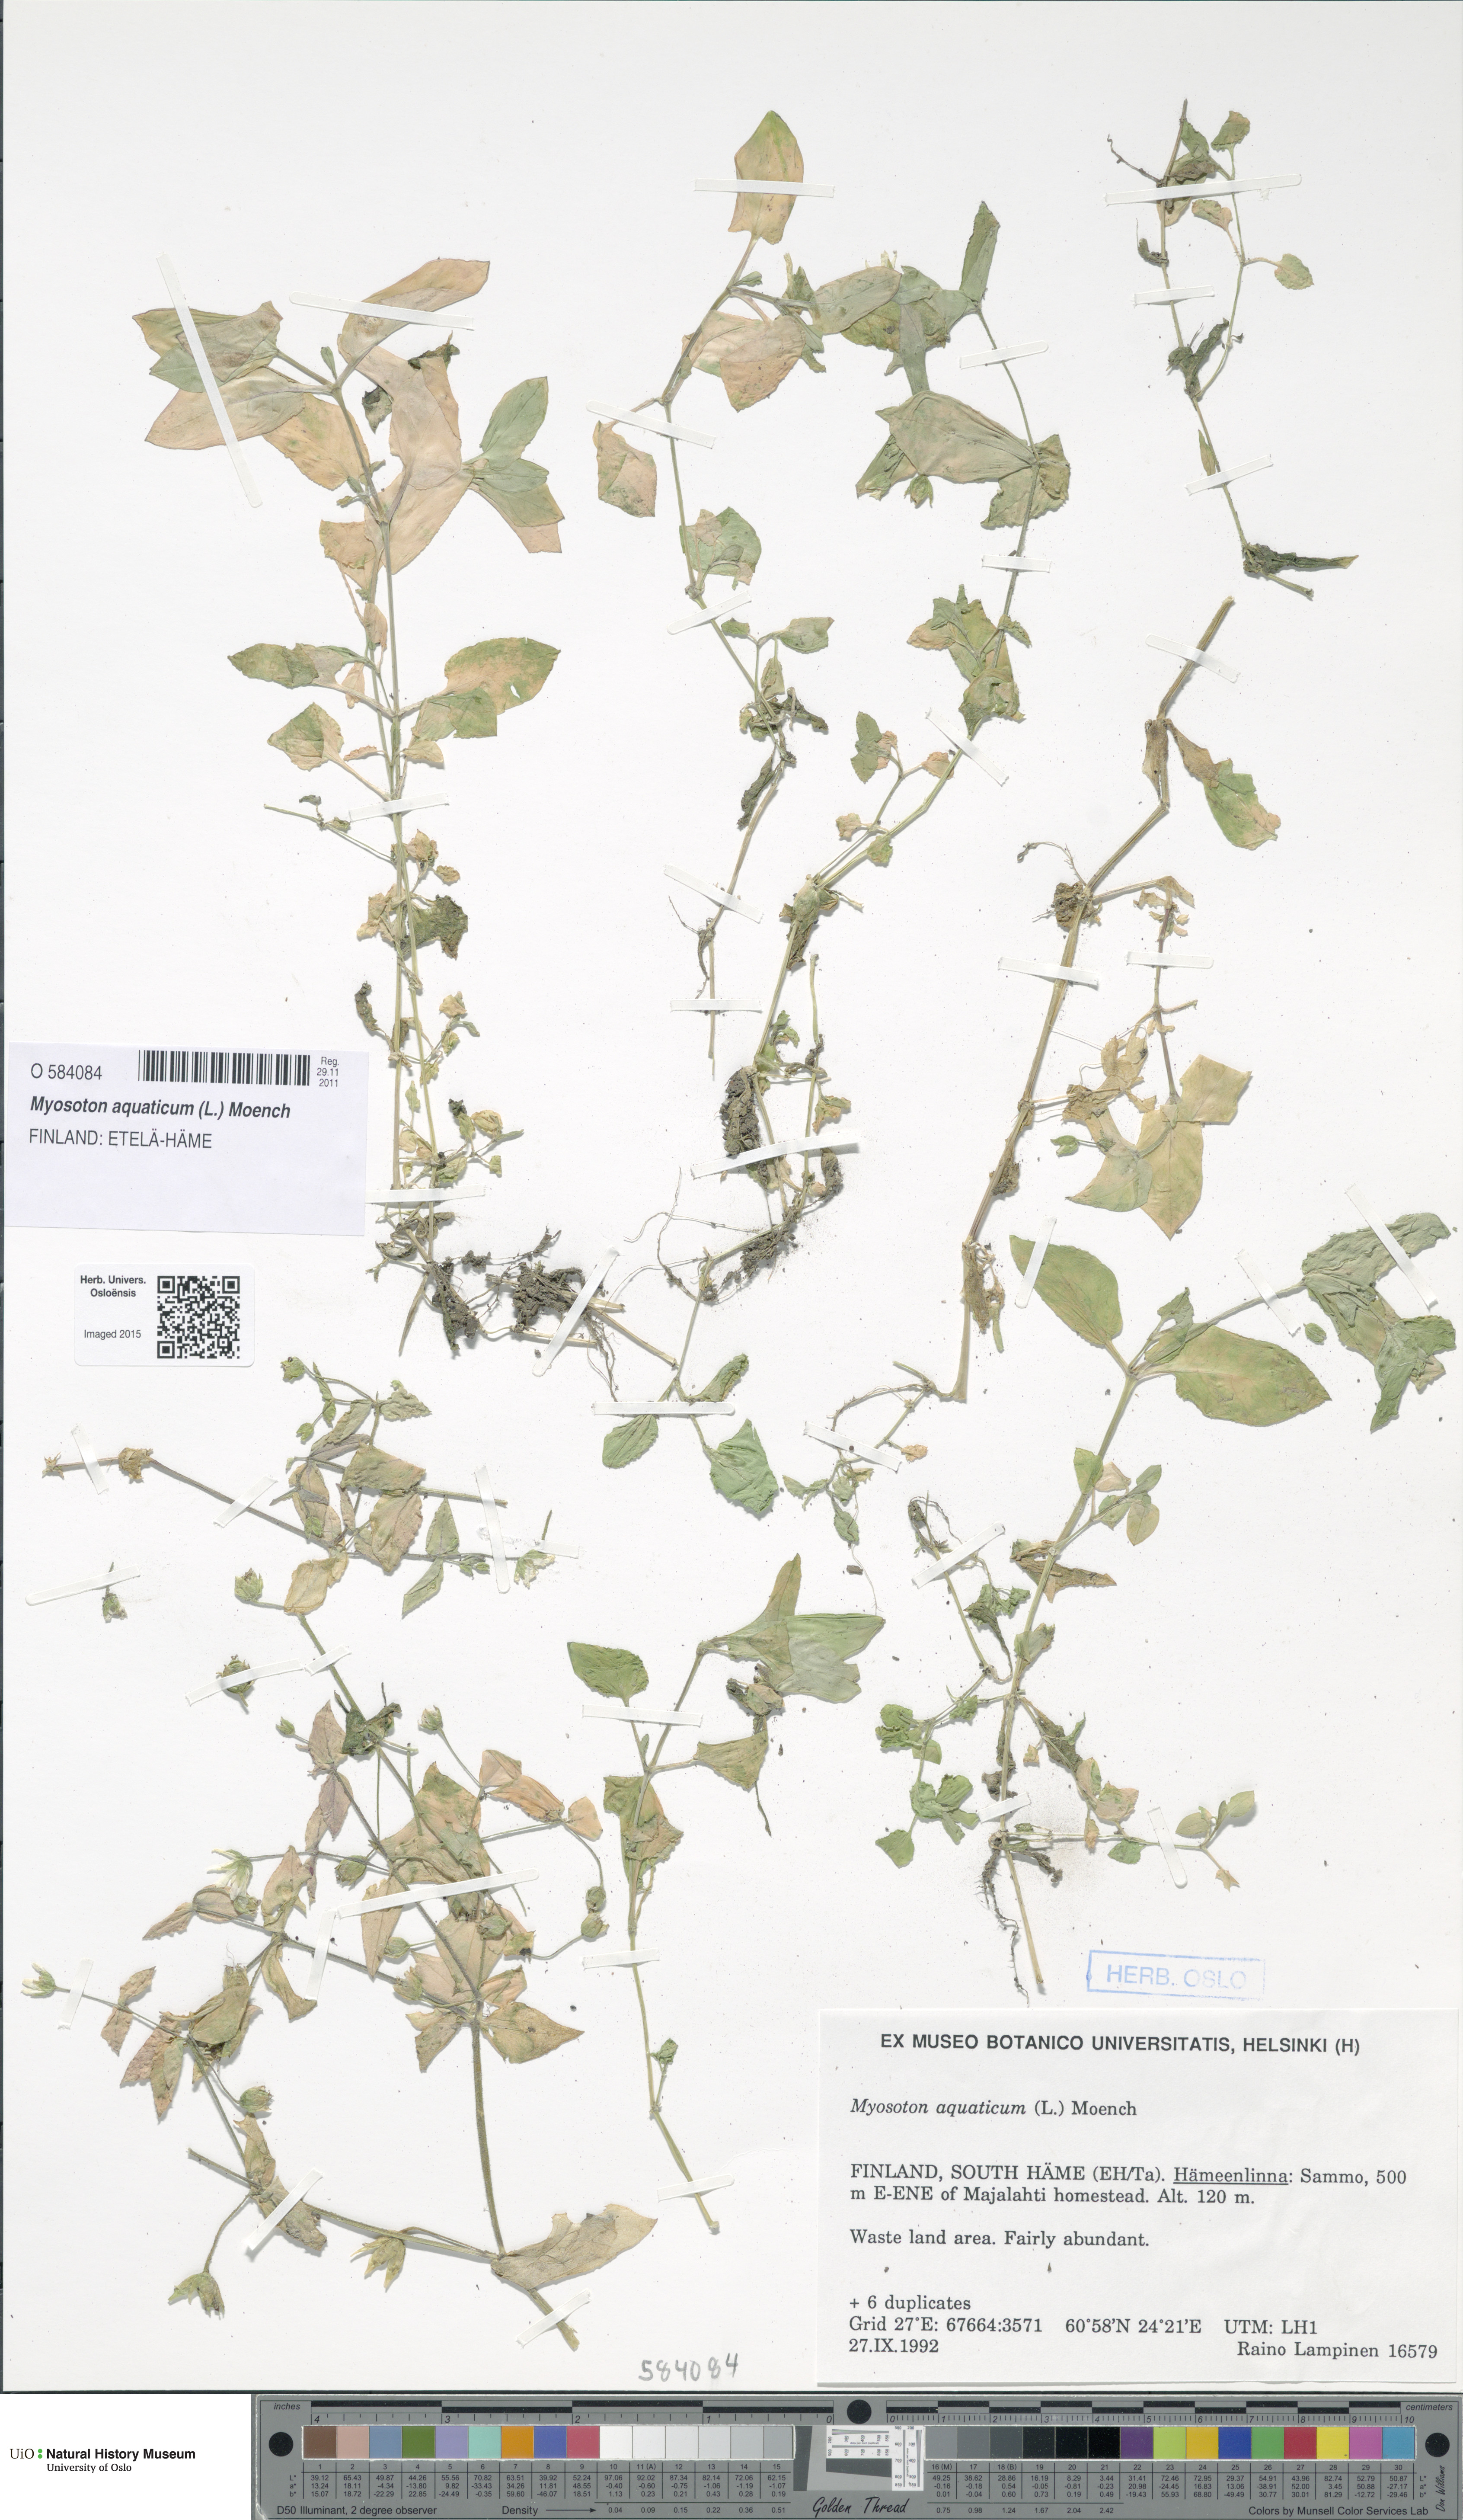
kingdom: Plantae
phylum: Tracheophyta
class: Magnoliopsida
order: Caryophyllales
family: Caryophyllaceae
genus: Stellaria
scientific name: Stellaria aquatica
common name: Water chickweed
